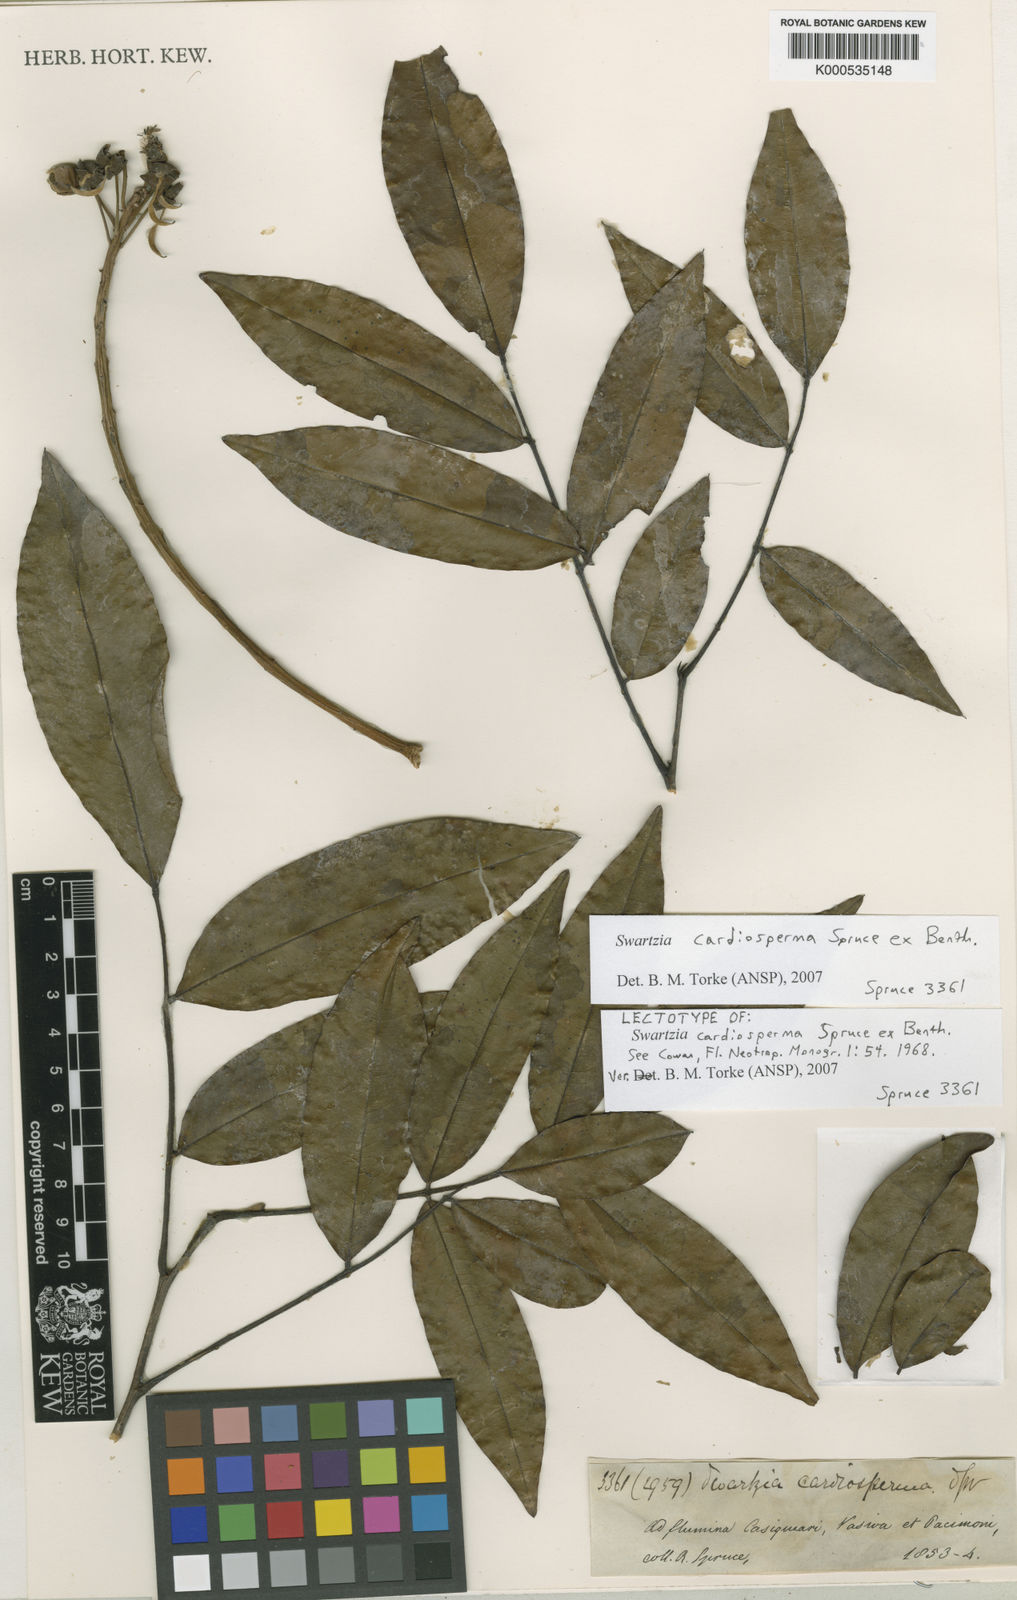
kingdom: Plantae
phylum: Tracheophyta
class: Magnoliopsida
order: Fabales
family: Fabaceae
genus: Swartzia
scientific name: Swartzia cardiosperma
